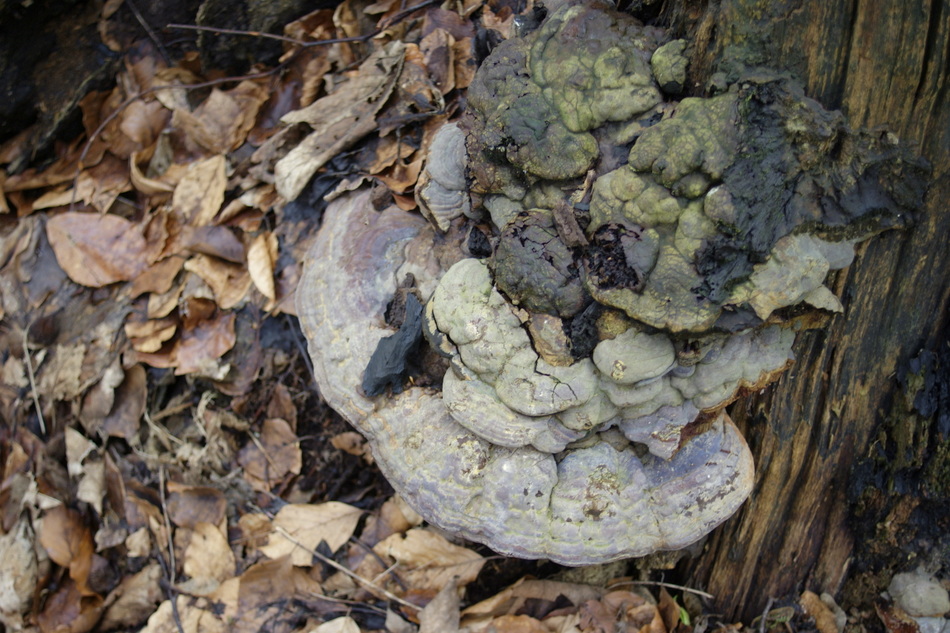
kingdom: Fungi
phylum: Basidiomycota
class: Agaricomycetes
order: Polyporales
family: Polyporaceae
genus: Ganoderma
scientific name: Ganoderma pfeifferi
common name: kobberrød lakporesvamp
